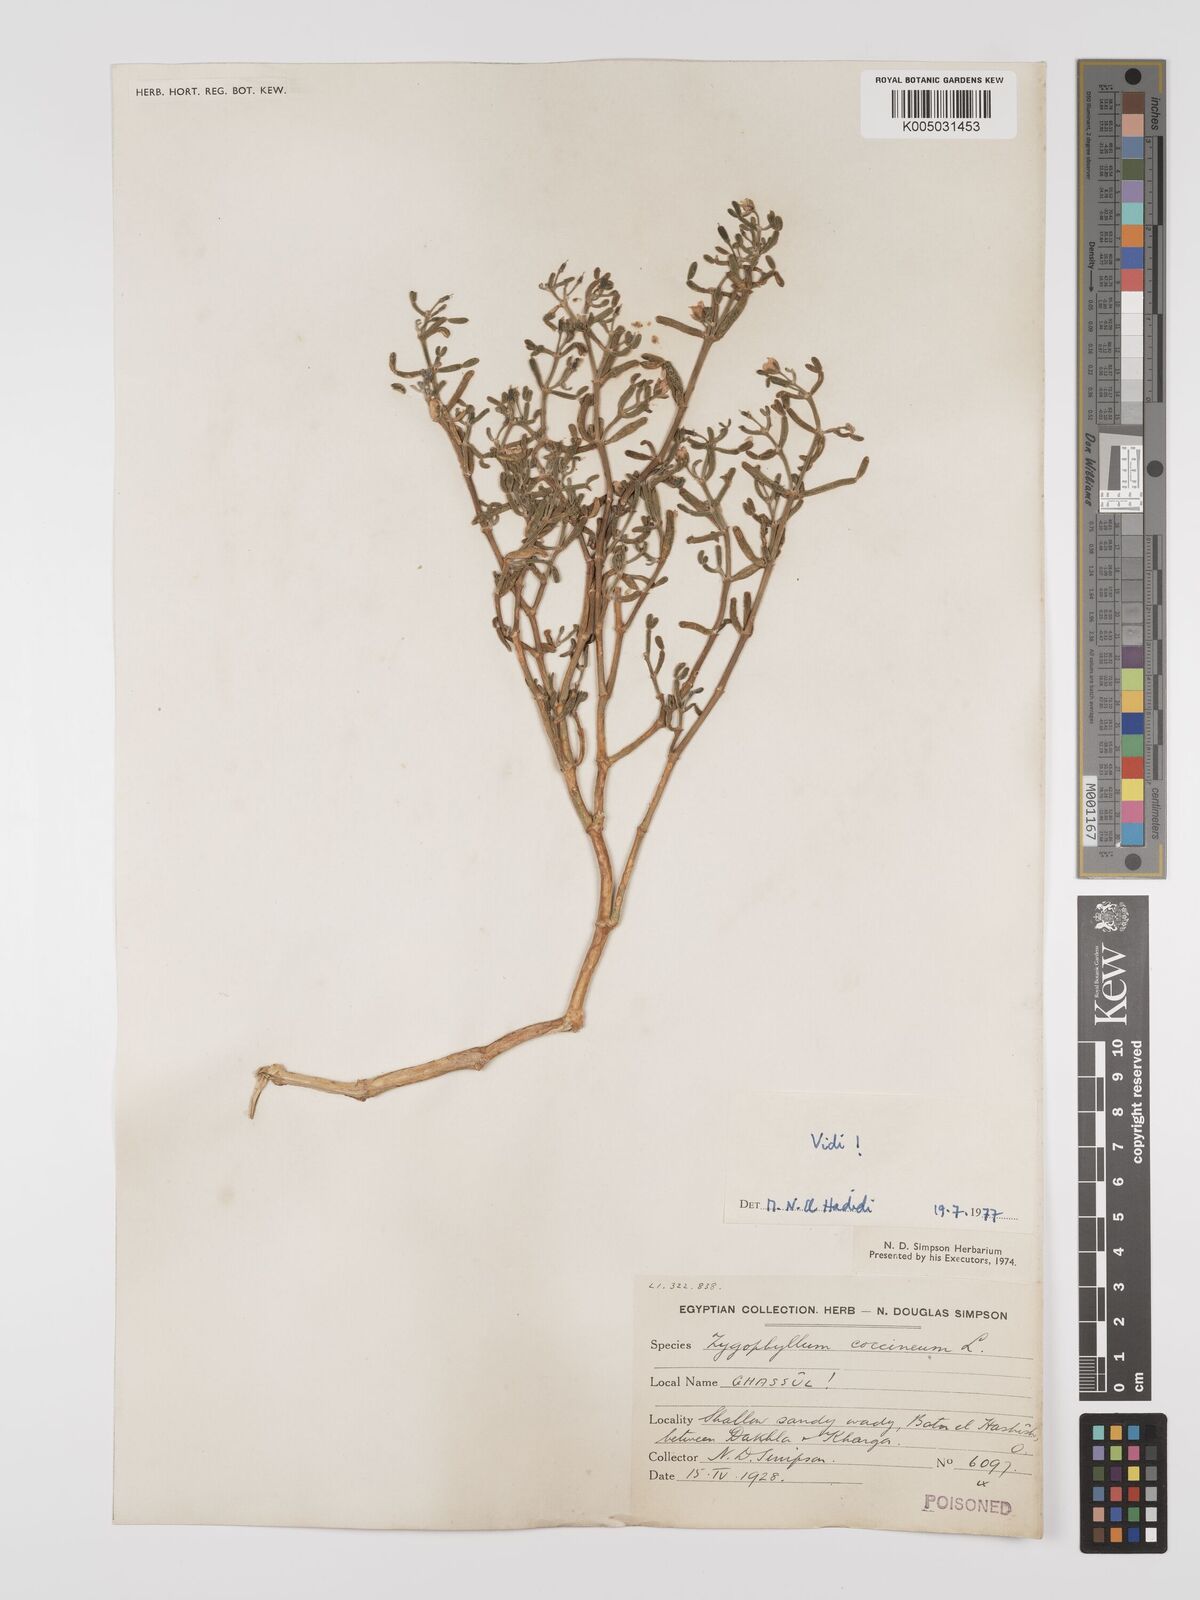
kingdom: Plantae
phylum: Tracheophyta
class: Magnoliopsida
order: Zygophyllales
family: Zygophyllaceae
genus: Zygophyllum
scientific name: Zygophyllum
